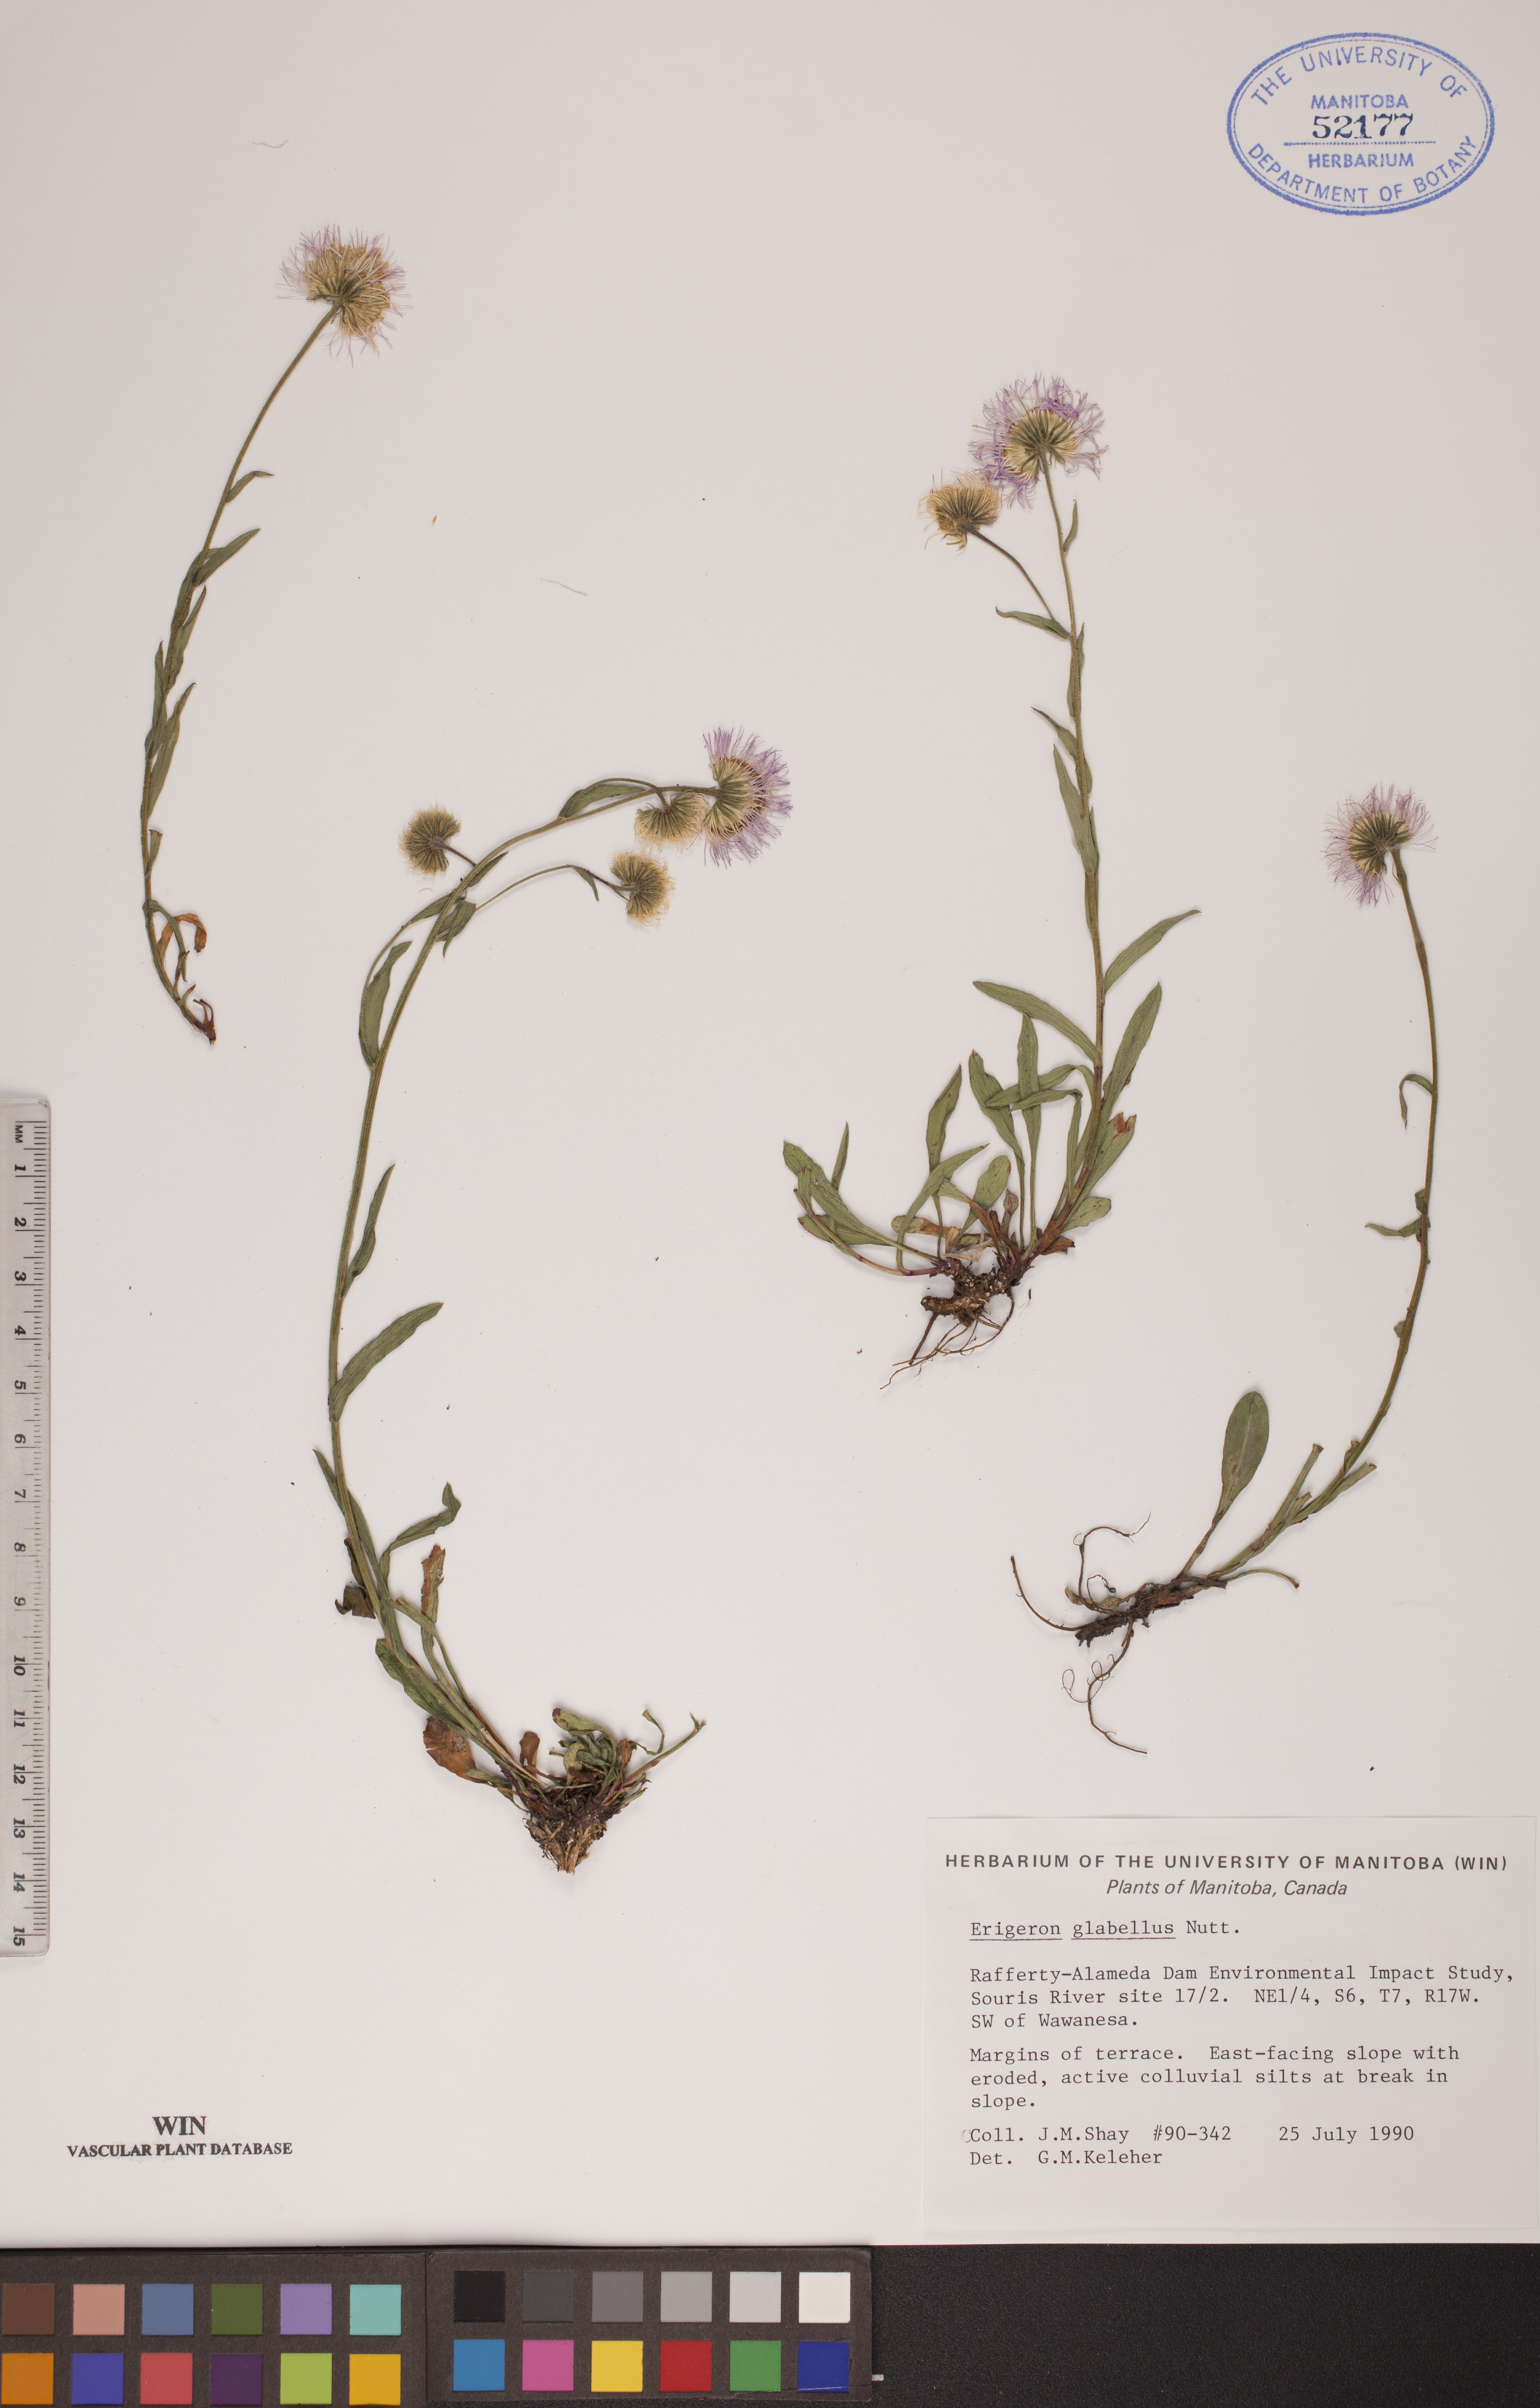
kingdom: Plantae
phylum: Tracheophyta
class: Magnoliopsida
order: Asterales
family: Asteraceae
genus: Erigeron
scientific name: Erigeron glabellus
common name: Smooth fleabane
